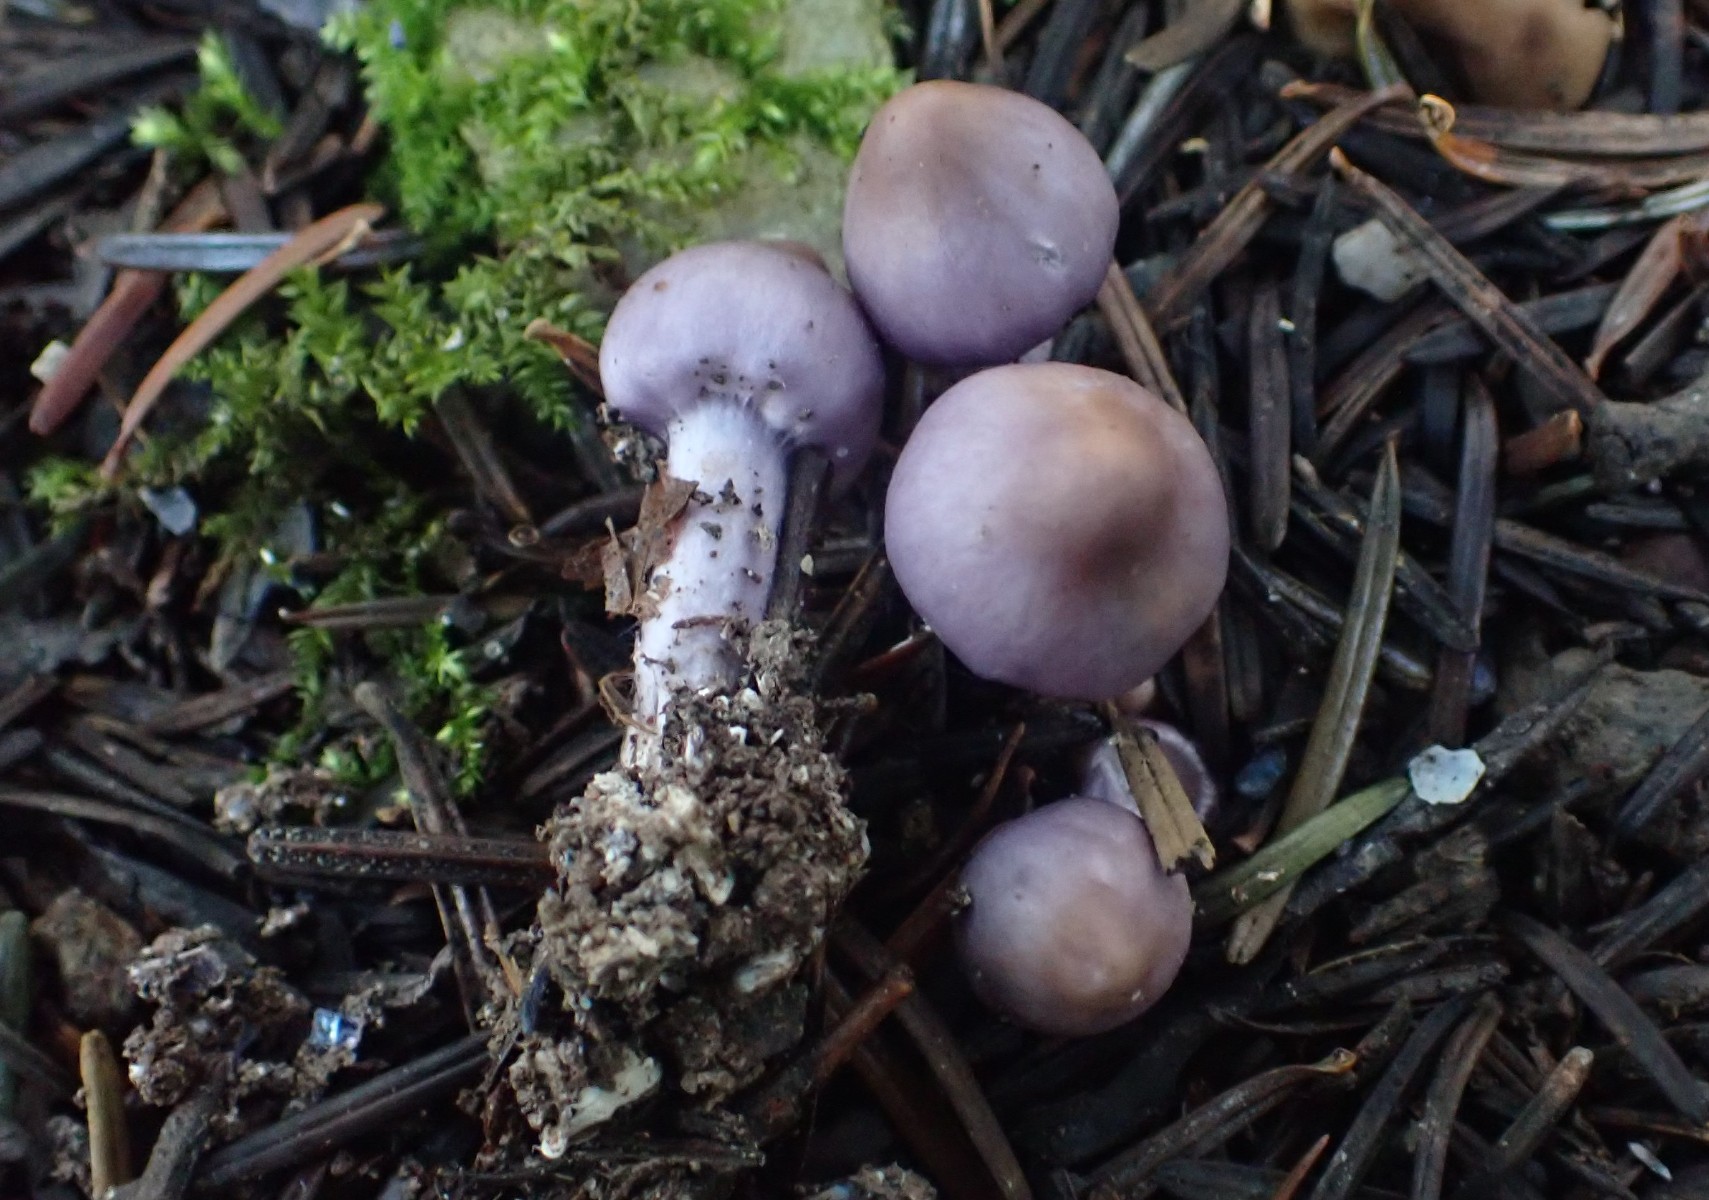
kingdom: Fungi
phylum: Basidiomycota
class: Agaricomycetes
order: Agaricales
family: Inocybaceae
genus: Inocybe
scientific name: Inocybe geophylla
